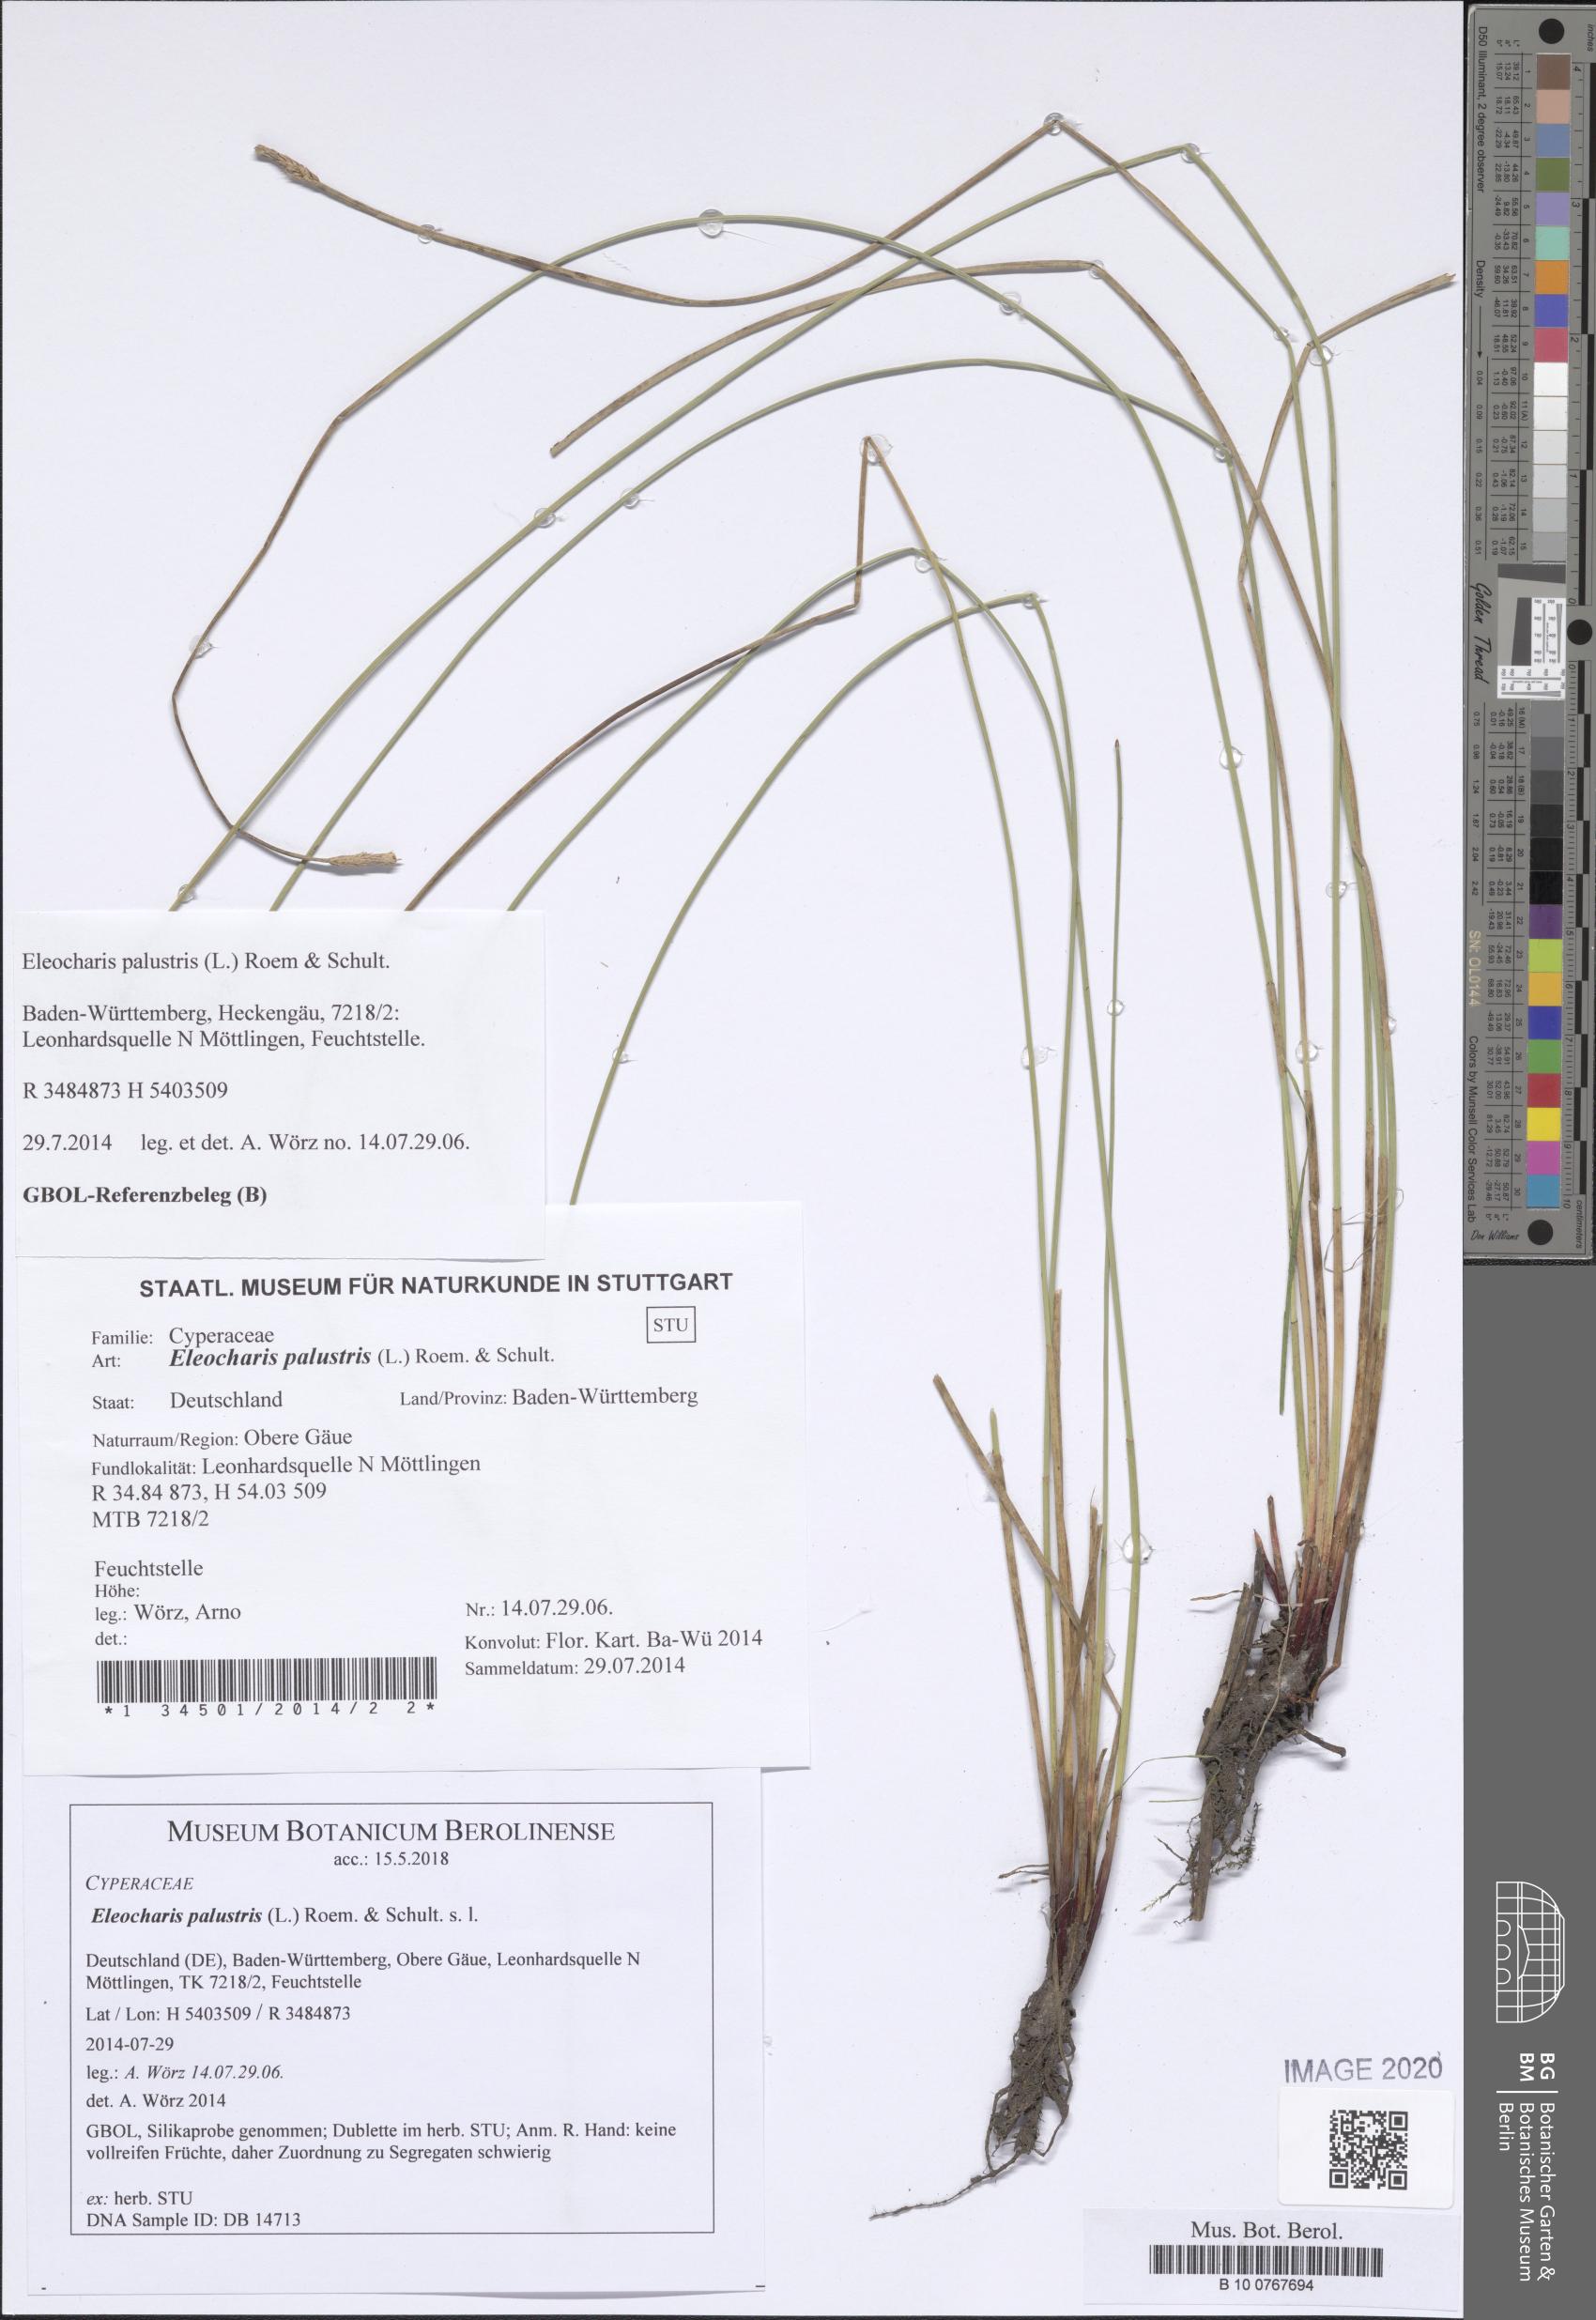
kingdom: Plantae
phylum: Tracheophyta
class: Liliopsida
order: Poales
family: Cyperaceae
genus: Eleocharis
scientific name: Eleocharis palustris
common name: Common spike-rush
